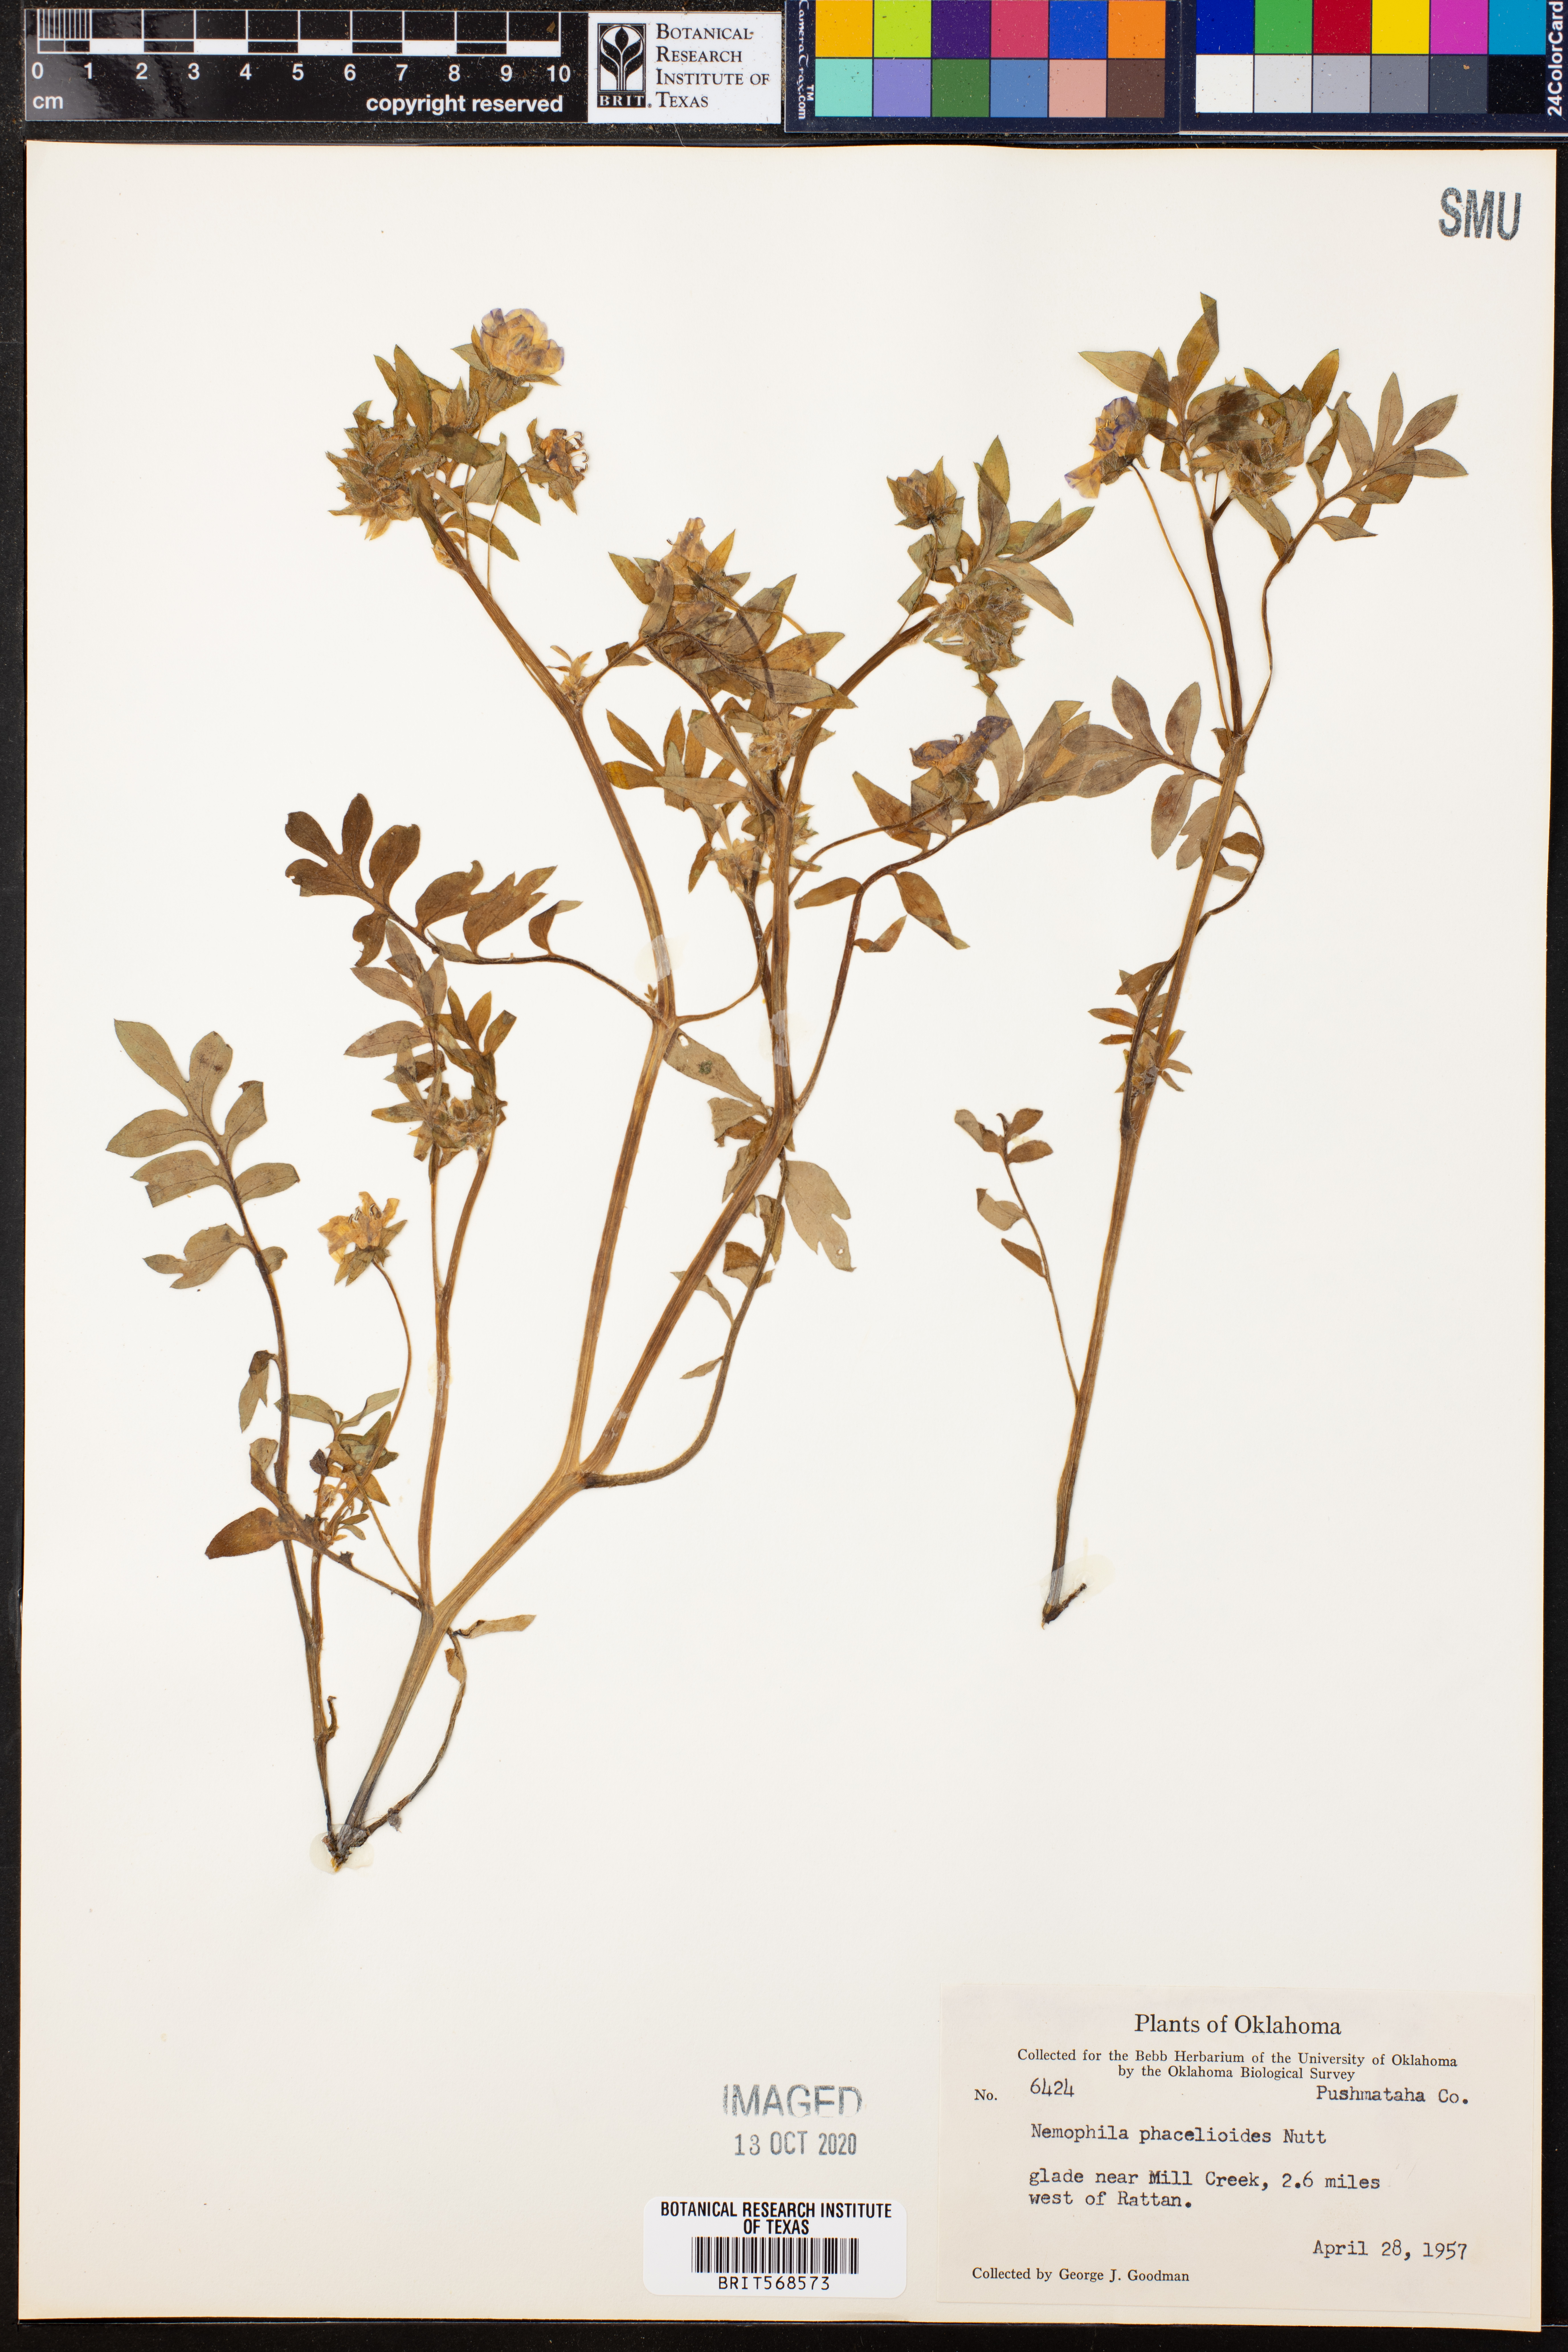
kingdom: Plantae
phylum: Tracheophyta
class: Magnoliopsida
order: Boraginales
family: Hydrophyllaceae
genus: Nemophila
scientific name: Nemophila phacelioides
